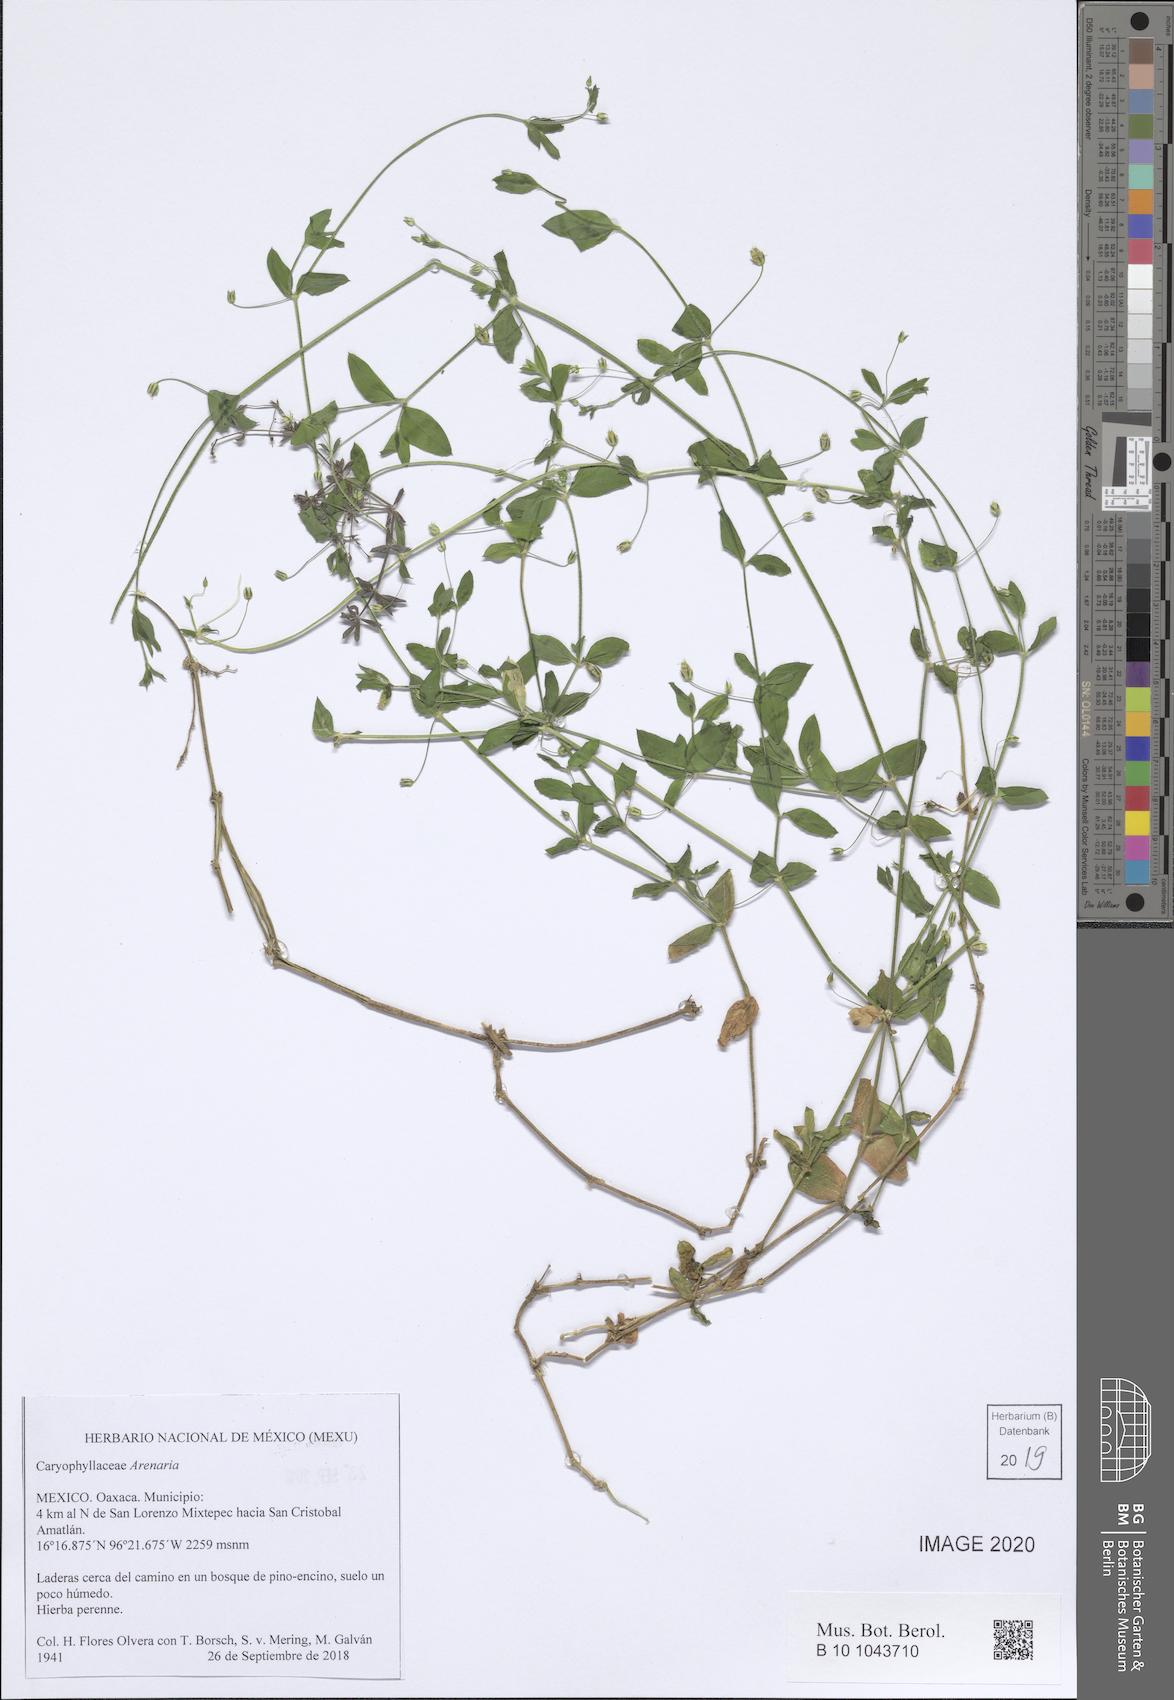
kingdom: Plantae
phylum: Tracheophyta
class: Magnoliopsida
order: Caryophyllales
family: Caryophyllaceae
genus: Arenaria
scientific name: Arenaria
